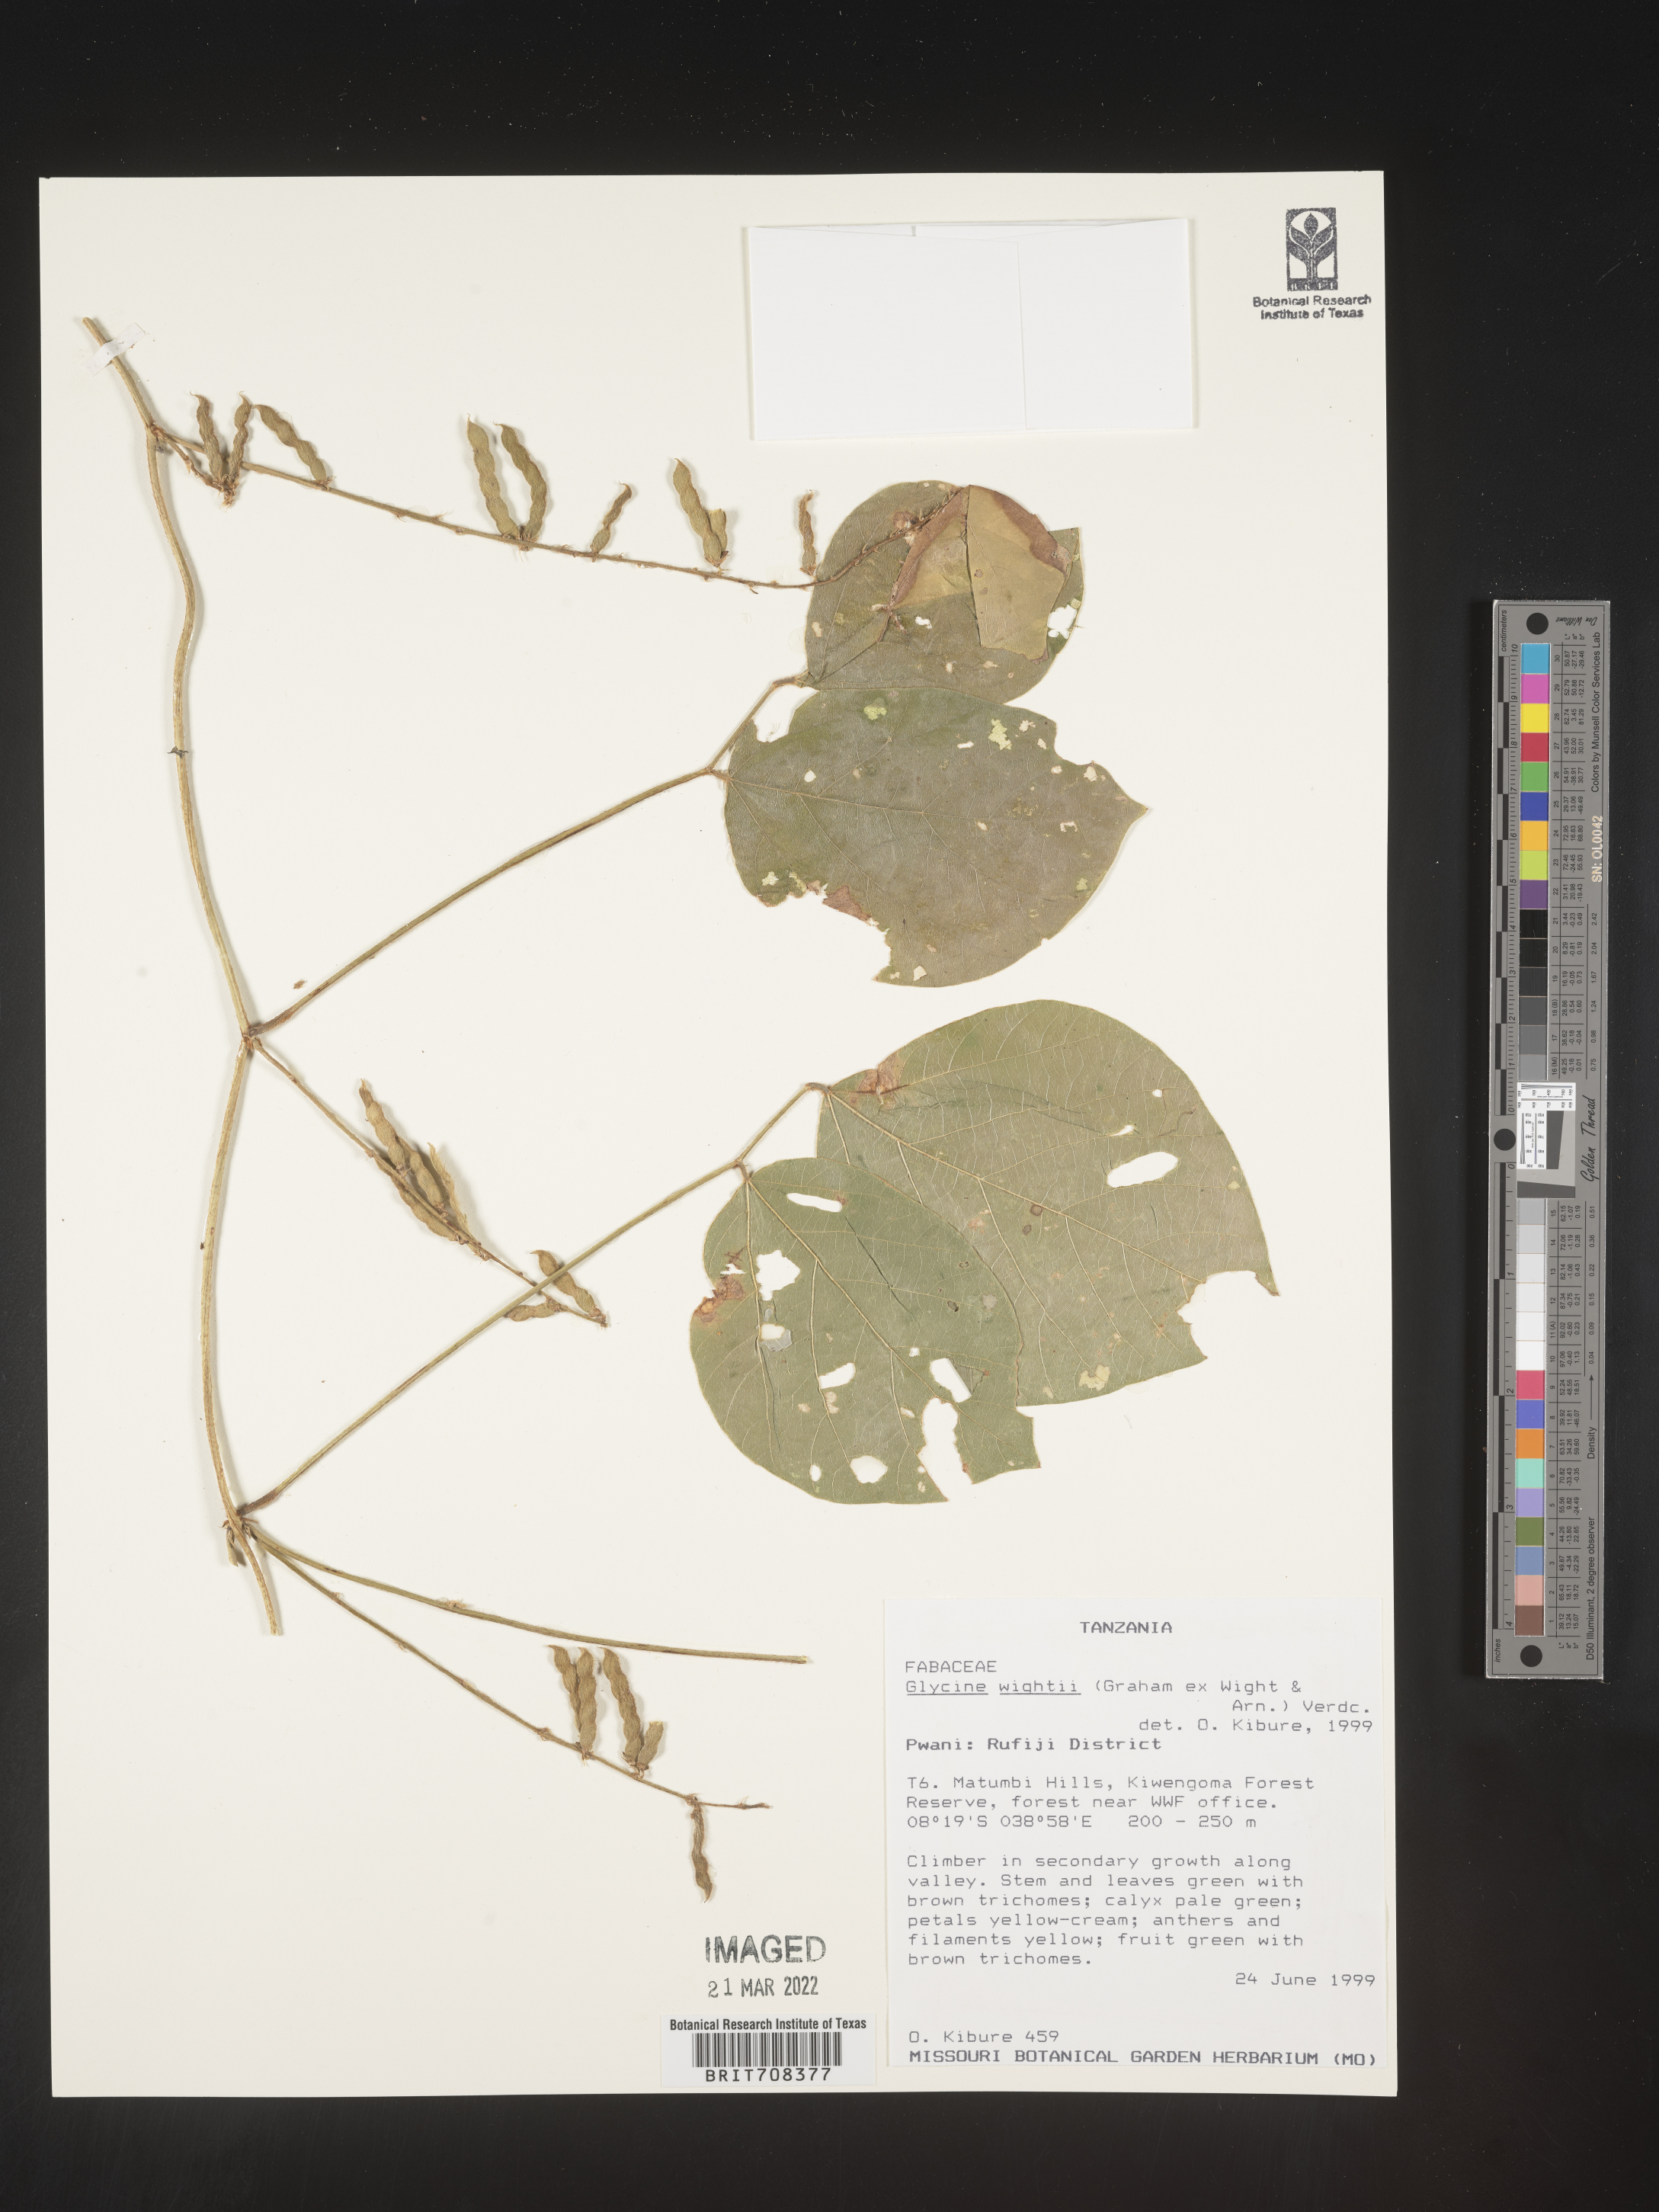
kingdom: Plantae
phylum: Tracheophyta
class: Magnoliopsida
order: Fabales
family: Fabaceae
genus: Glycine
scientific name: Glycine
